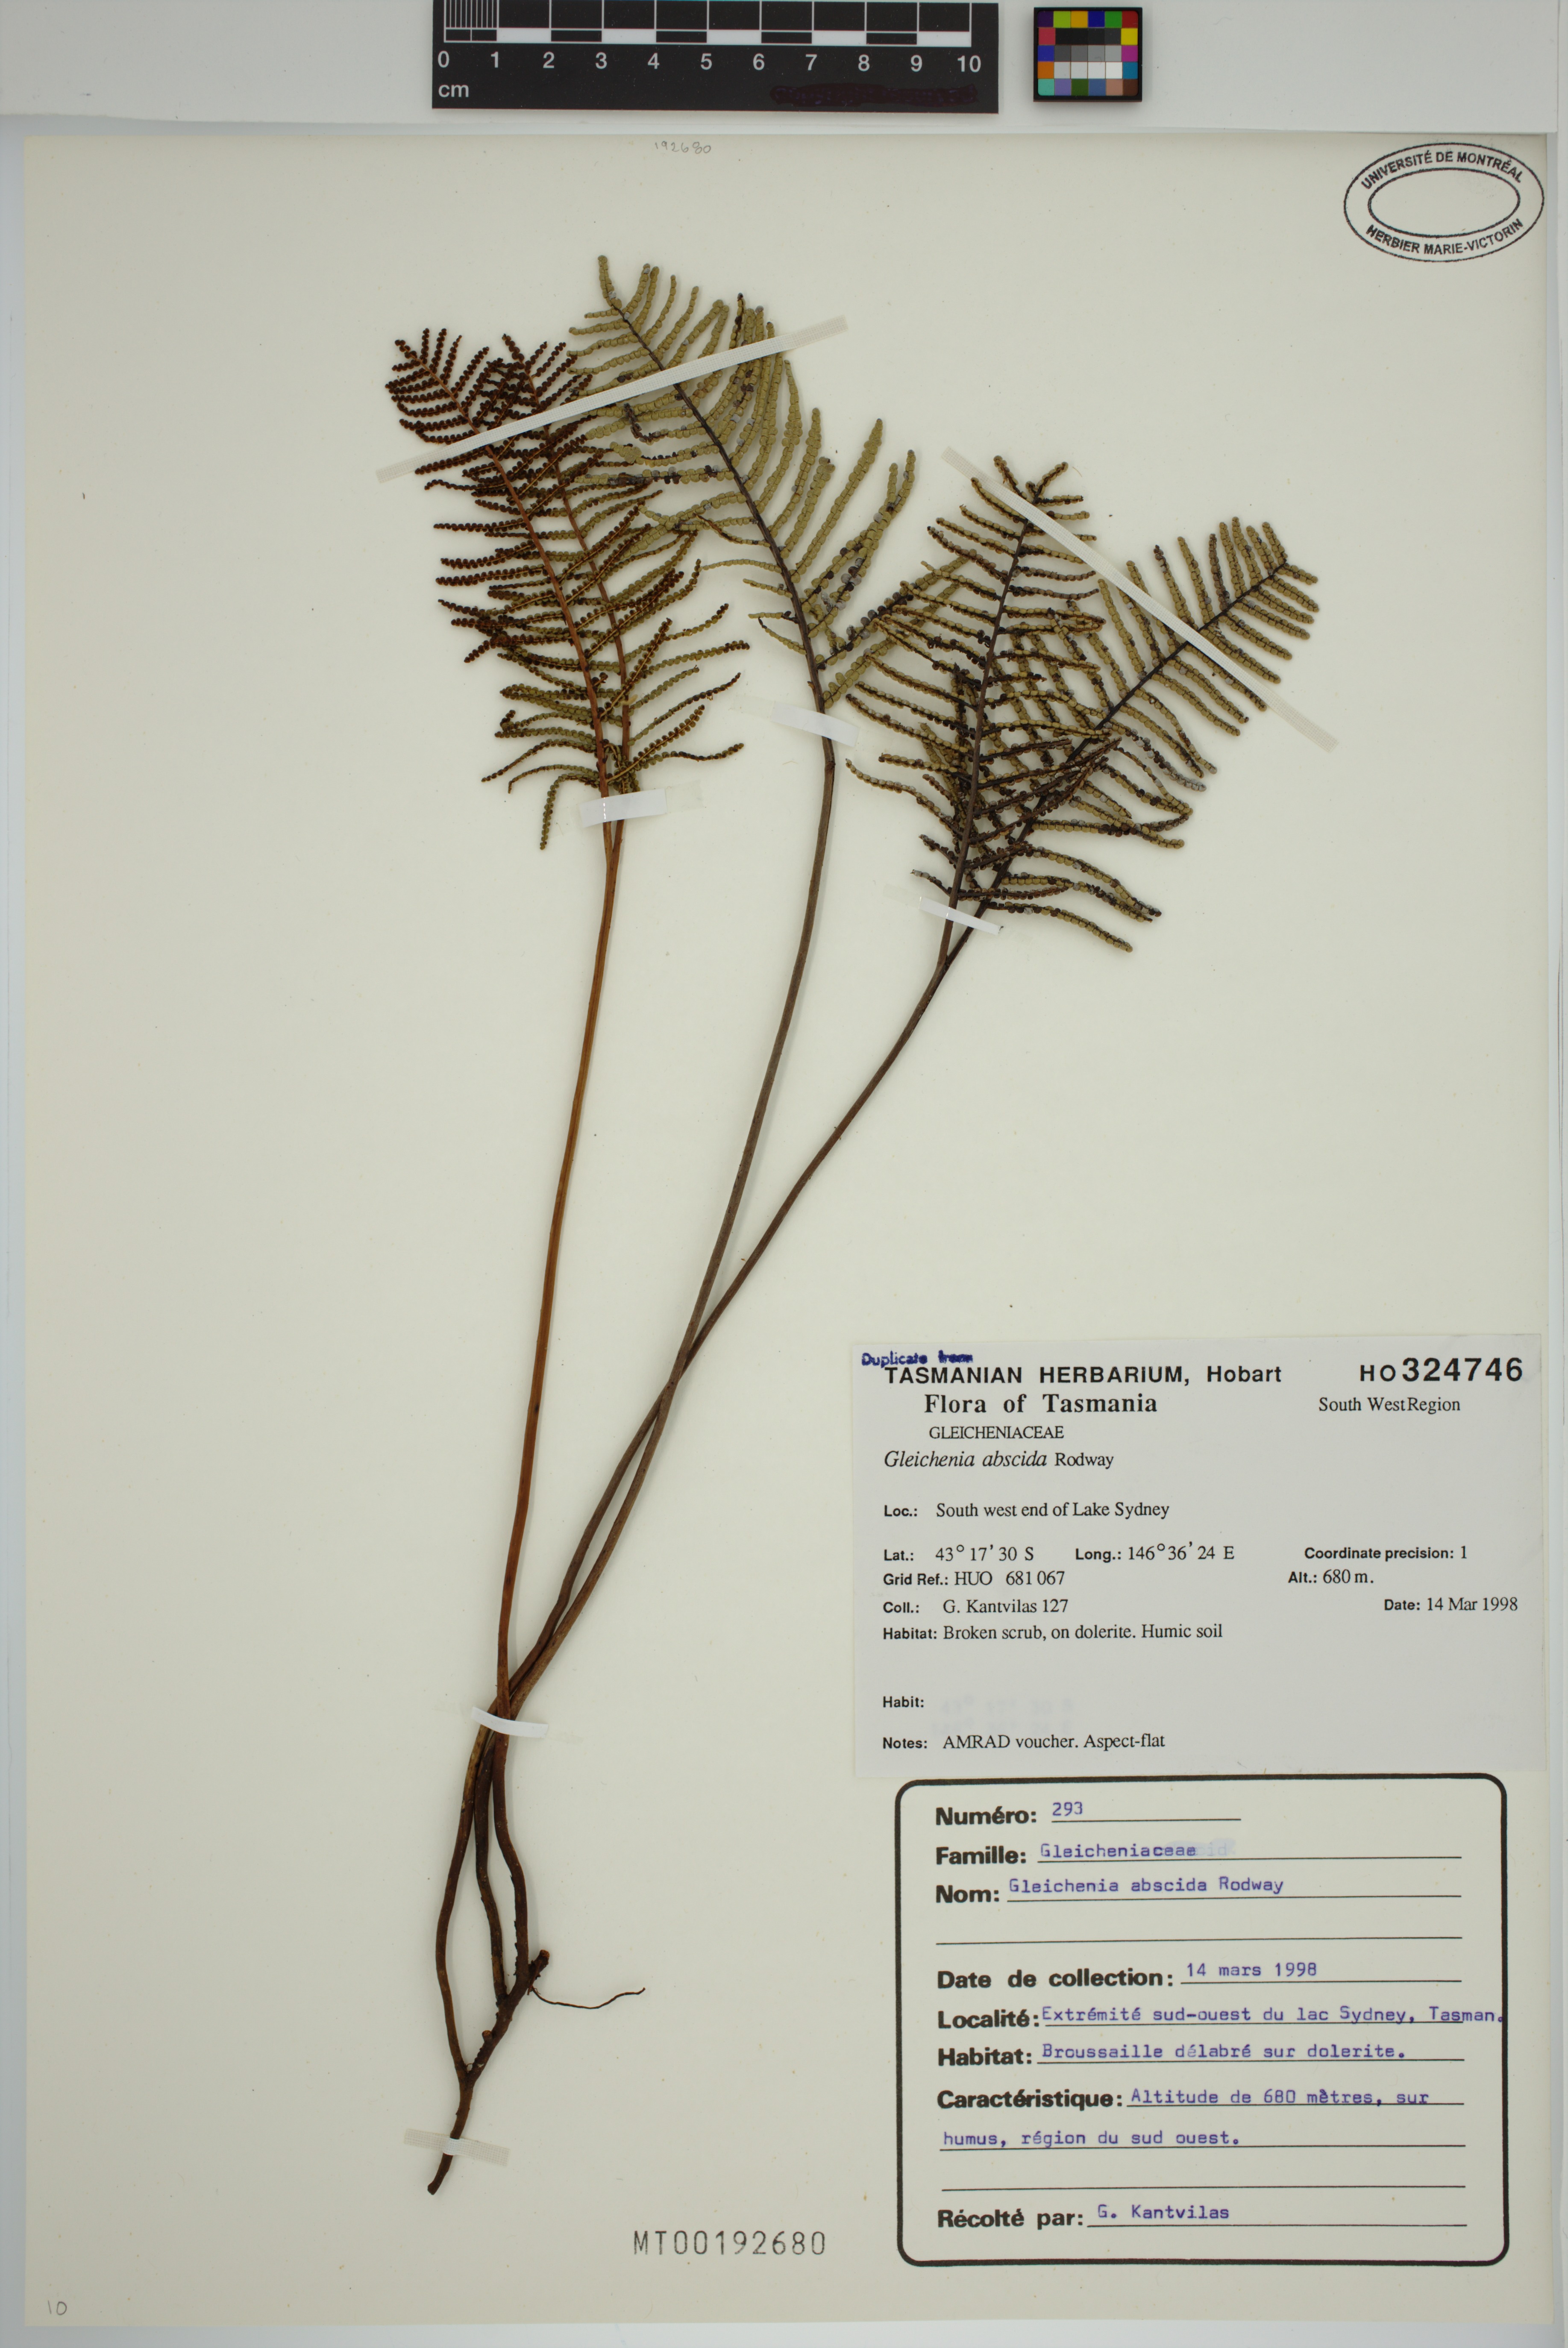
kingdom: Plantae
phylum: Tracheophyta
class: Polypodiopsida
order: Gleicheniales
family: Gleicheniaceae
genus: Gleichenia
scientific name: Gleichenia abscida
